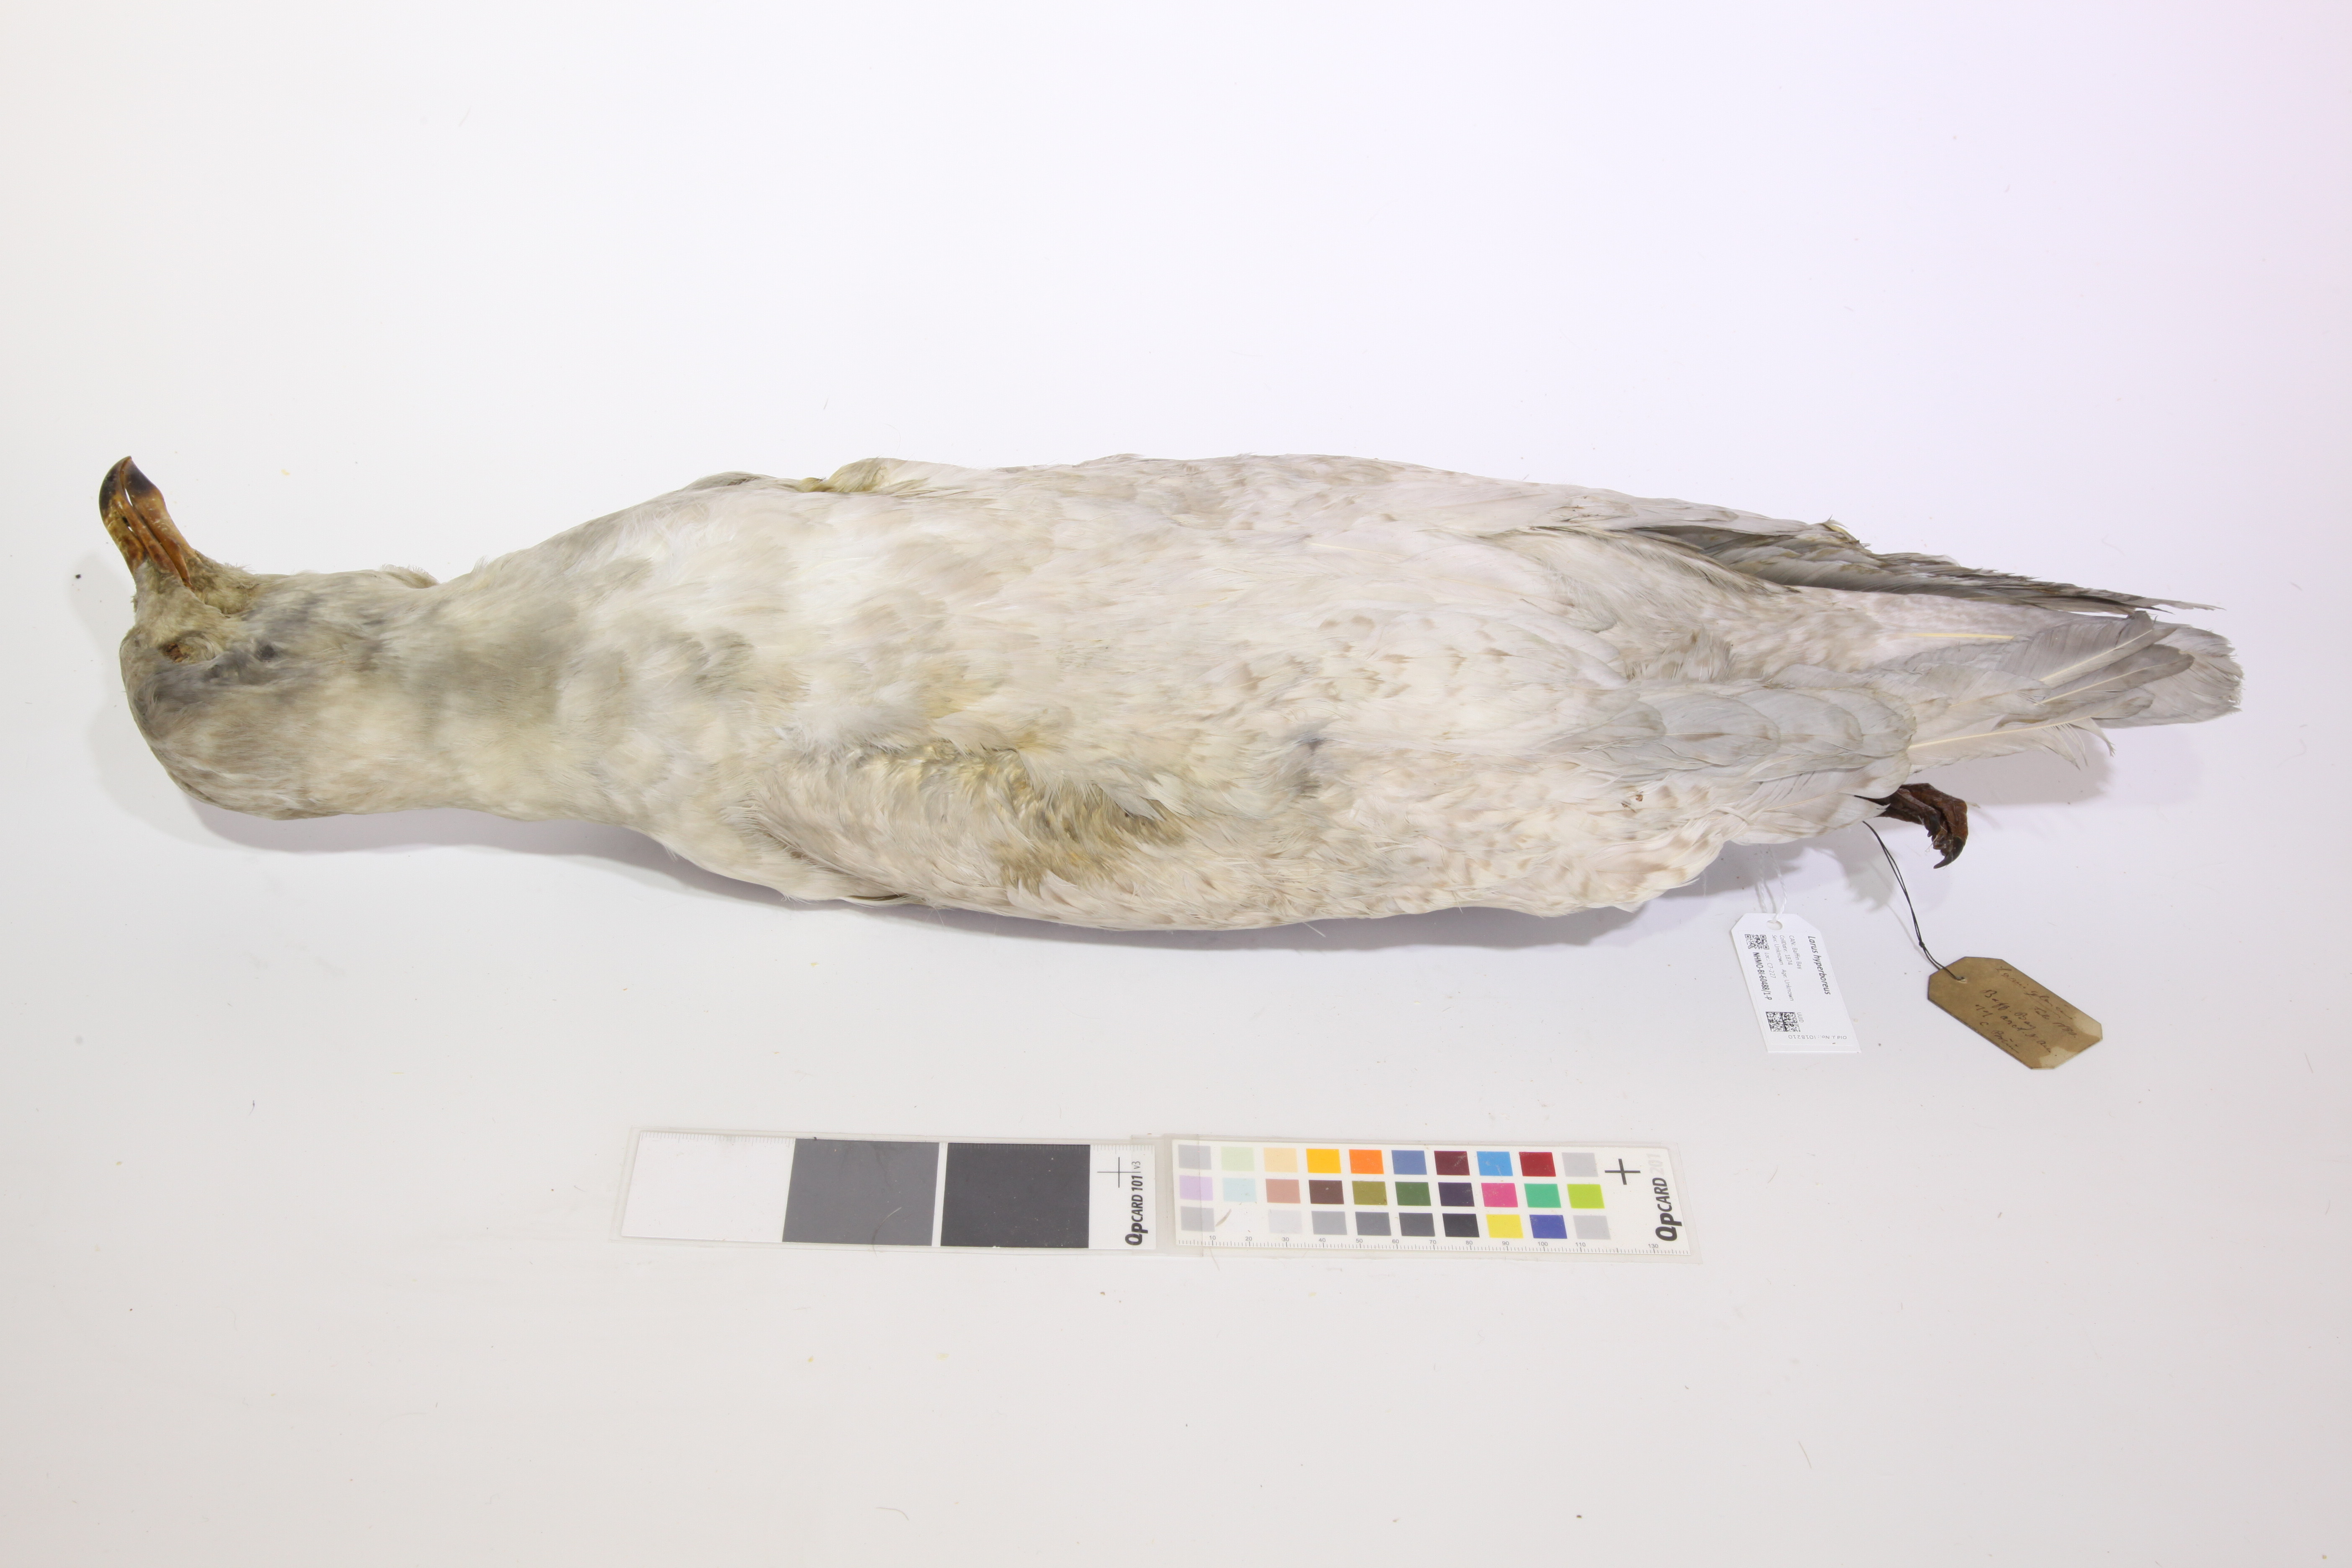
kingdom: Animalia
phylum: Chordata
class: Aves
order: Charadriiformes
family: Laridae
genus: Larus
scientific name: Larus hyperboreus
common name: Glaucous gull
